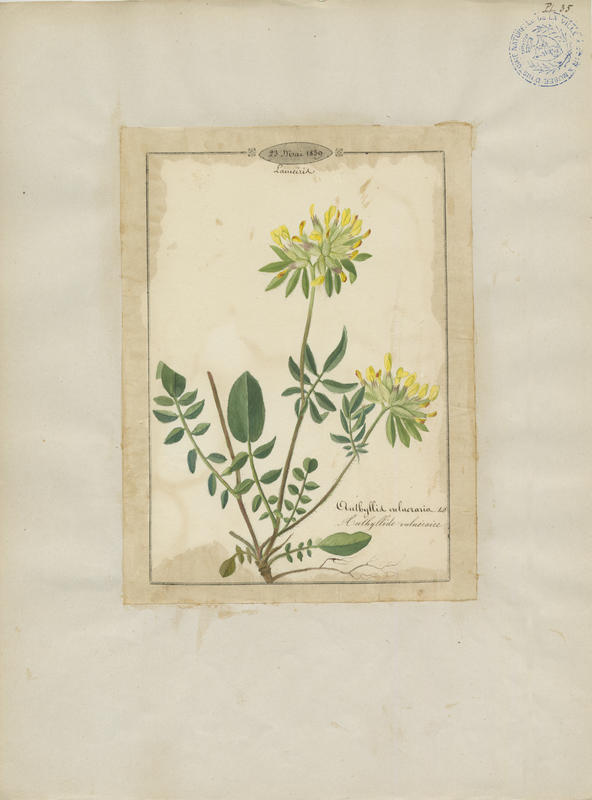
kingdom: Plantae
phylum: Tracheophyta
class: Magnoliopsida
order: Fabales
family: Fabaceae
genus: Anthyllis
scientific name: Anthyllis vulneraria
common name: Kidney vetch
